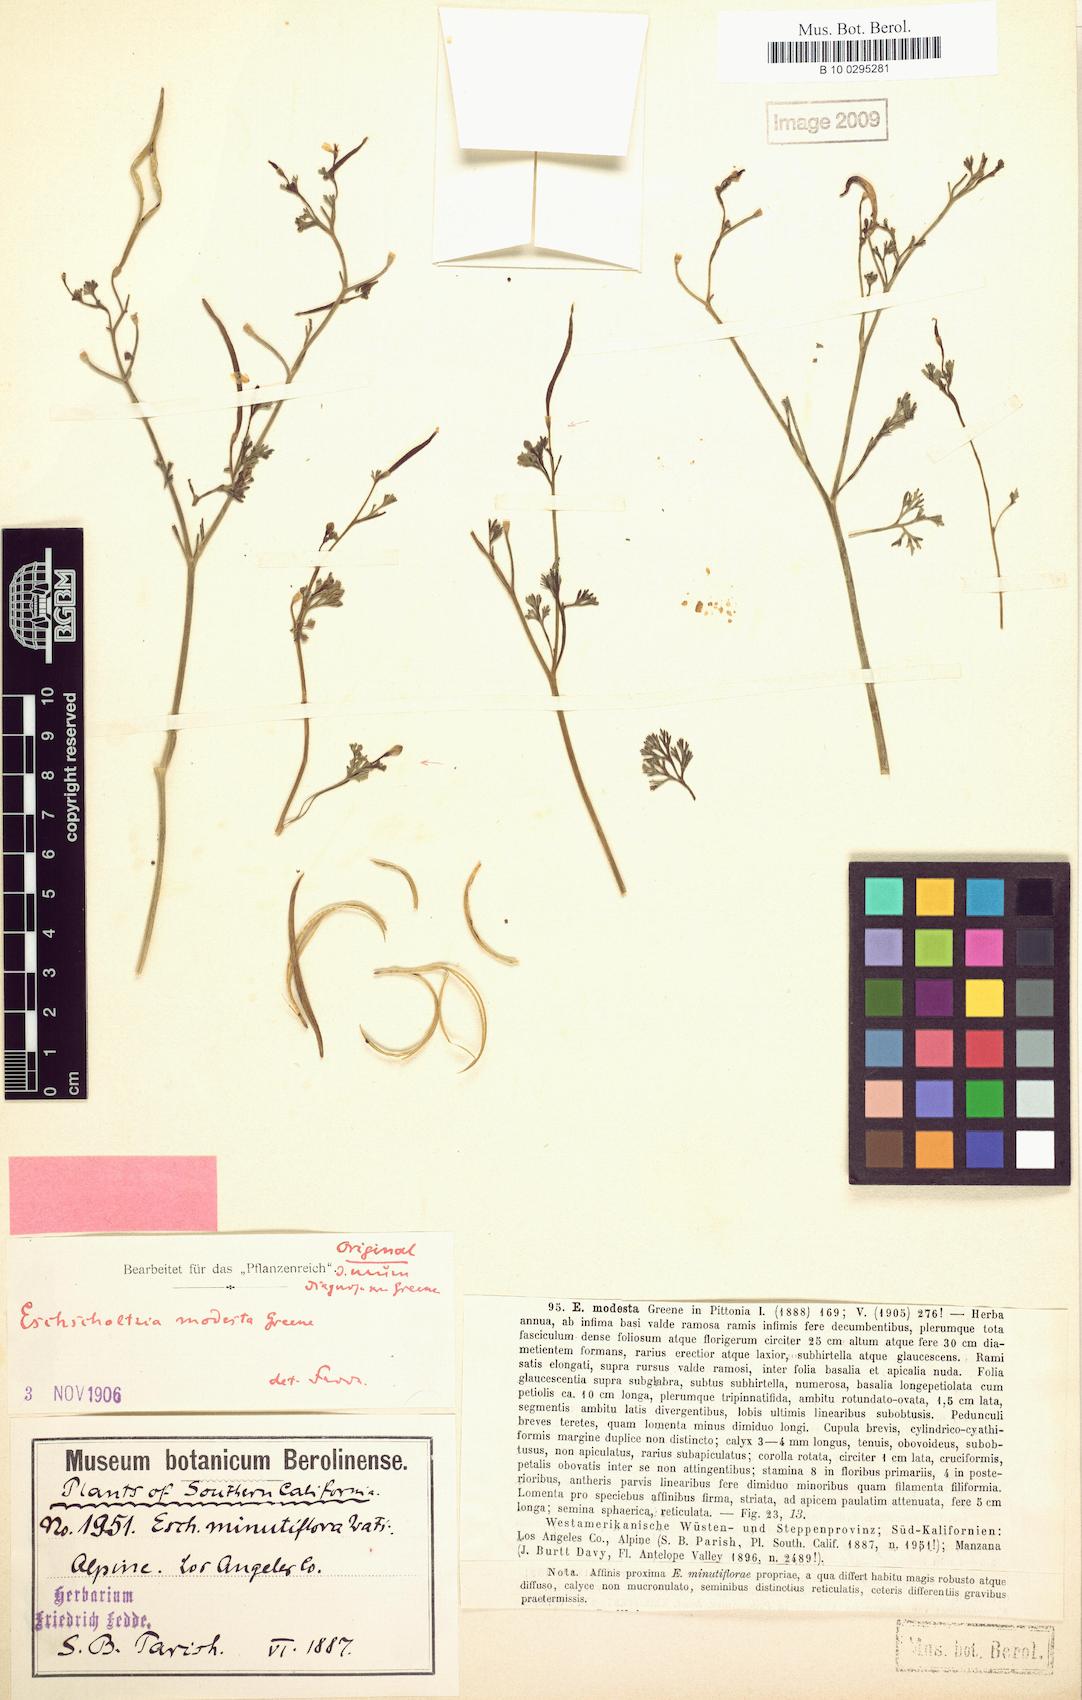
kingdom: Plantae
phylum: Tracheophyta
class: Magnoliopsida
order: Ranunculales
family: Papaveraceae
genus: Eschscholzia
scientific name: Eschscholzia minutiflora
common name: Small-flower california-poppy
